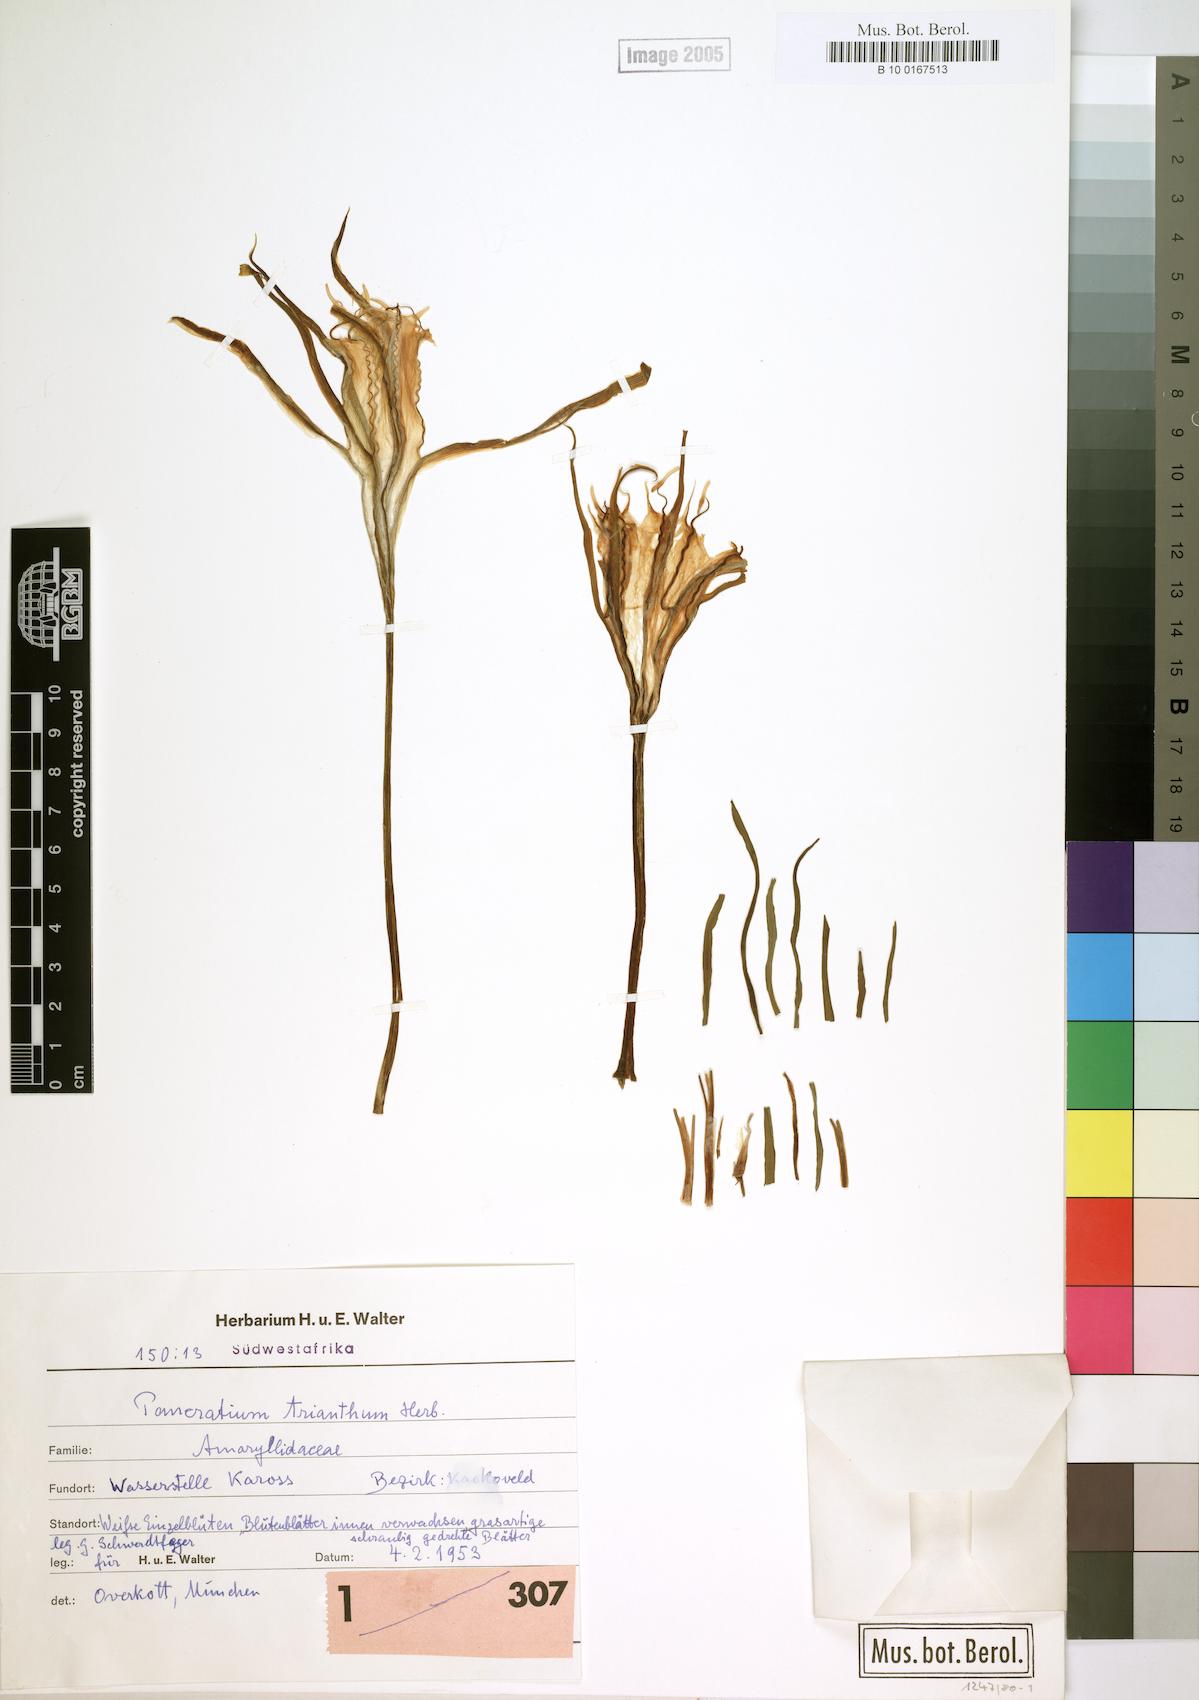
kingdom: Plantae
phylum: Tracheophyta
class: Liliopsida
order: Asparagales
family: Amaryllidaceae
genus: Pancratium
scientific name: Pancratium trianthum
